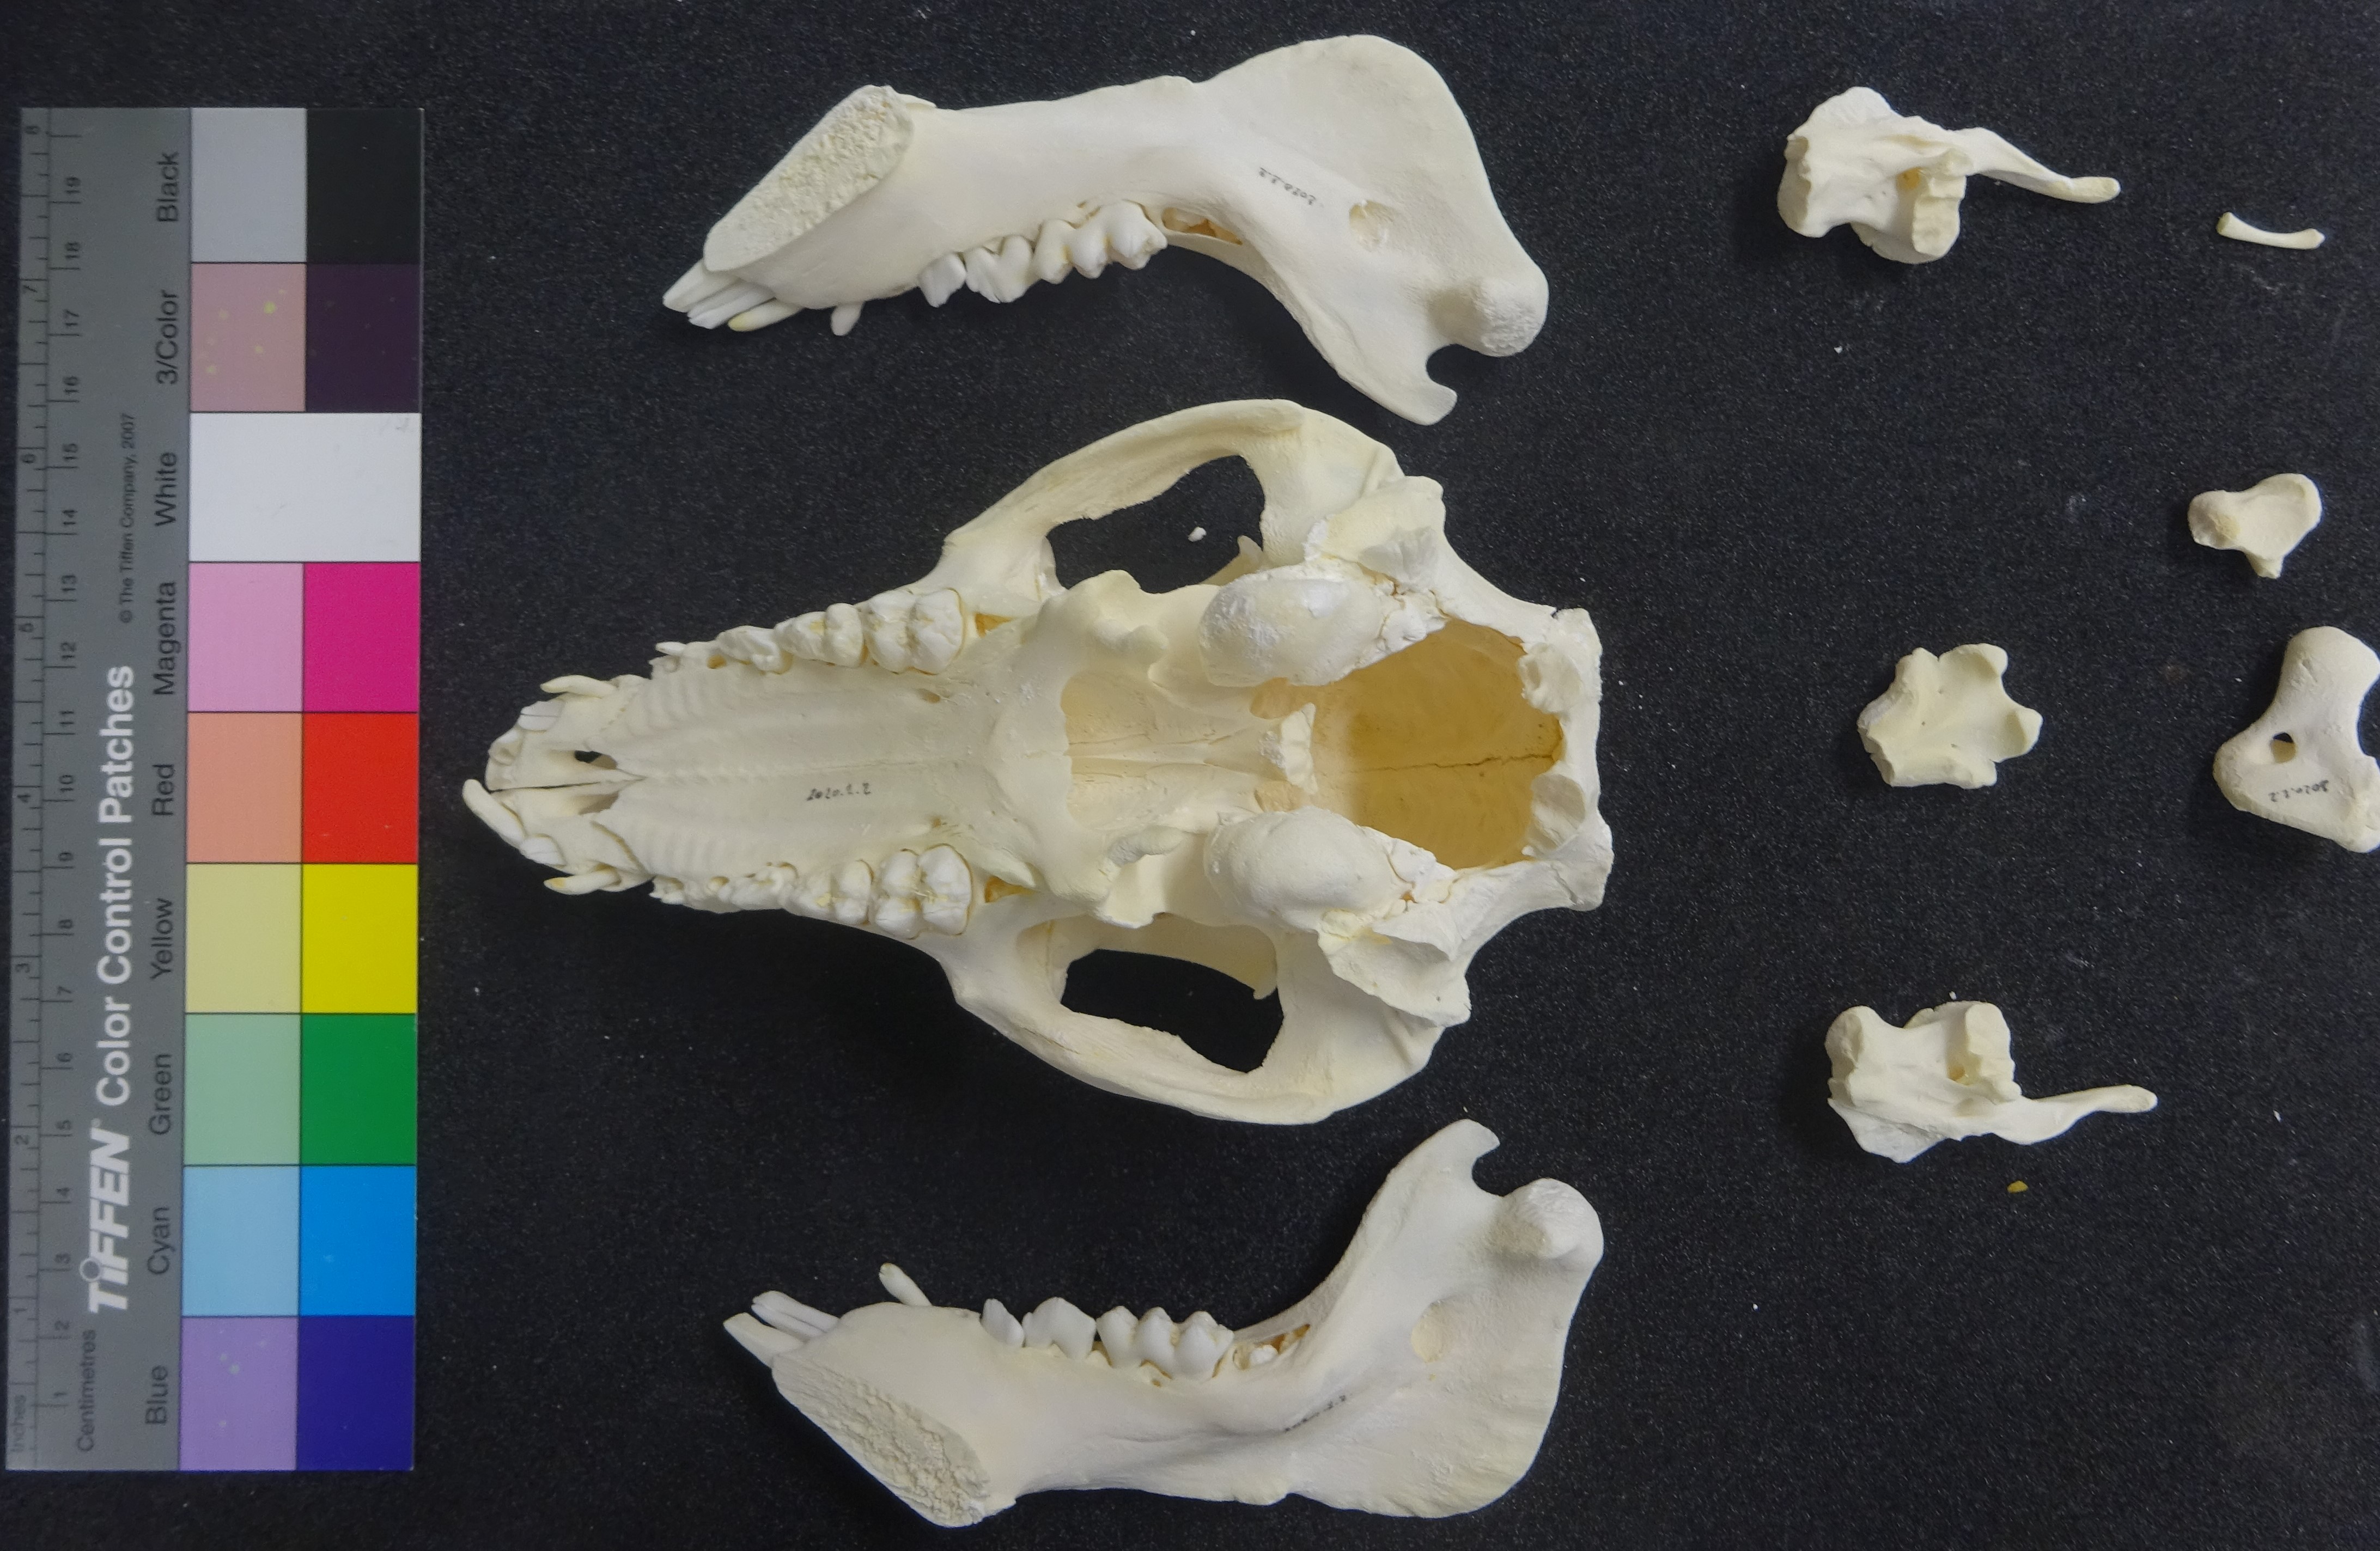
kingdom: Animalia
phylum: Chordata
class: Mammalia
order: Artiodactyla
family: Suidae
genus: Sus
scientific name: Sus scrofa
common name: Wild boar
